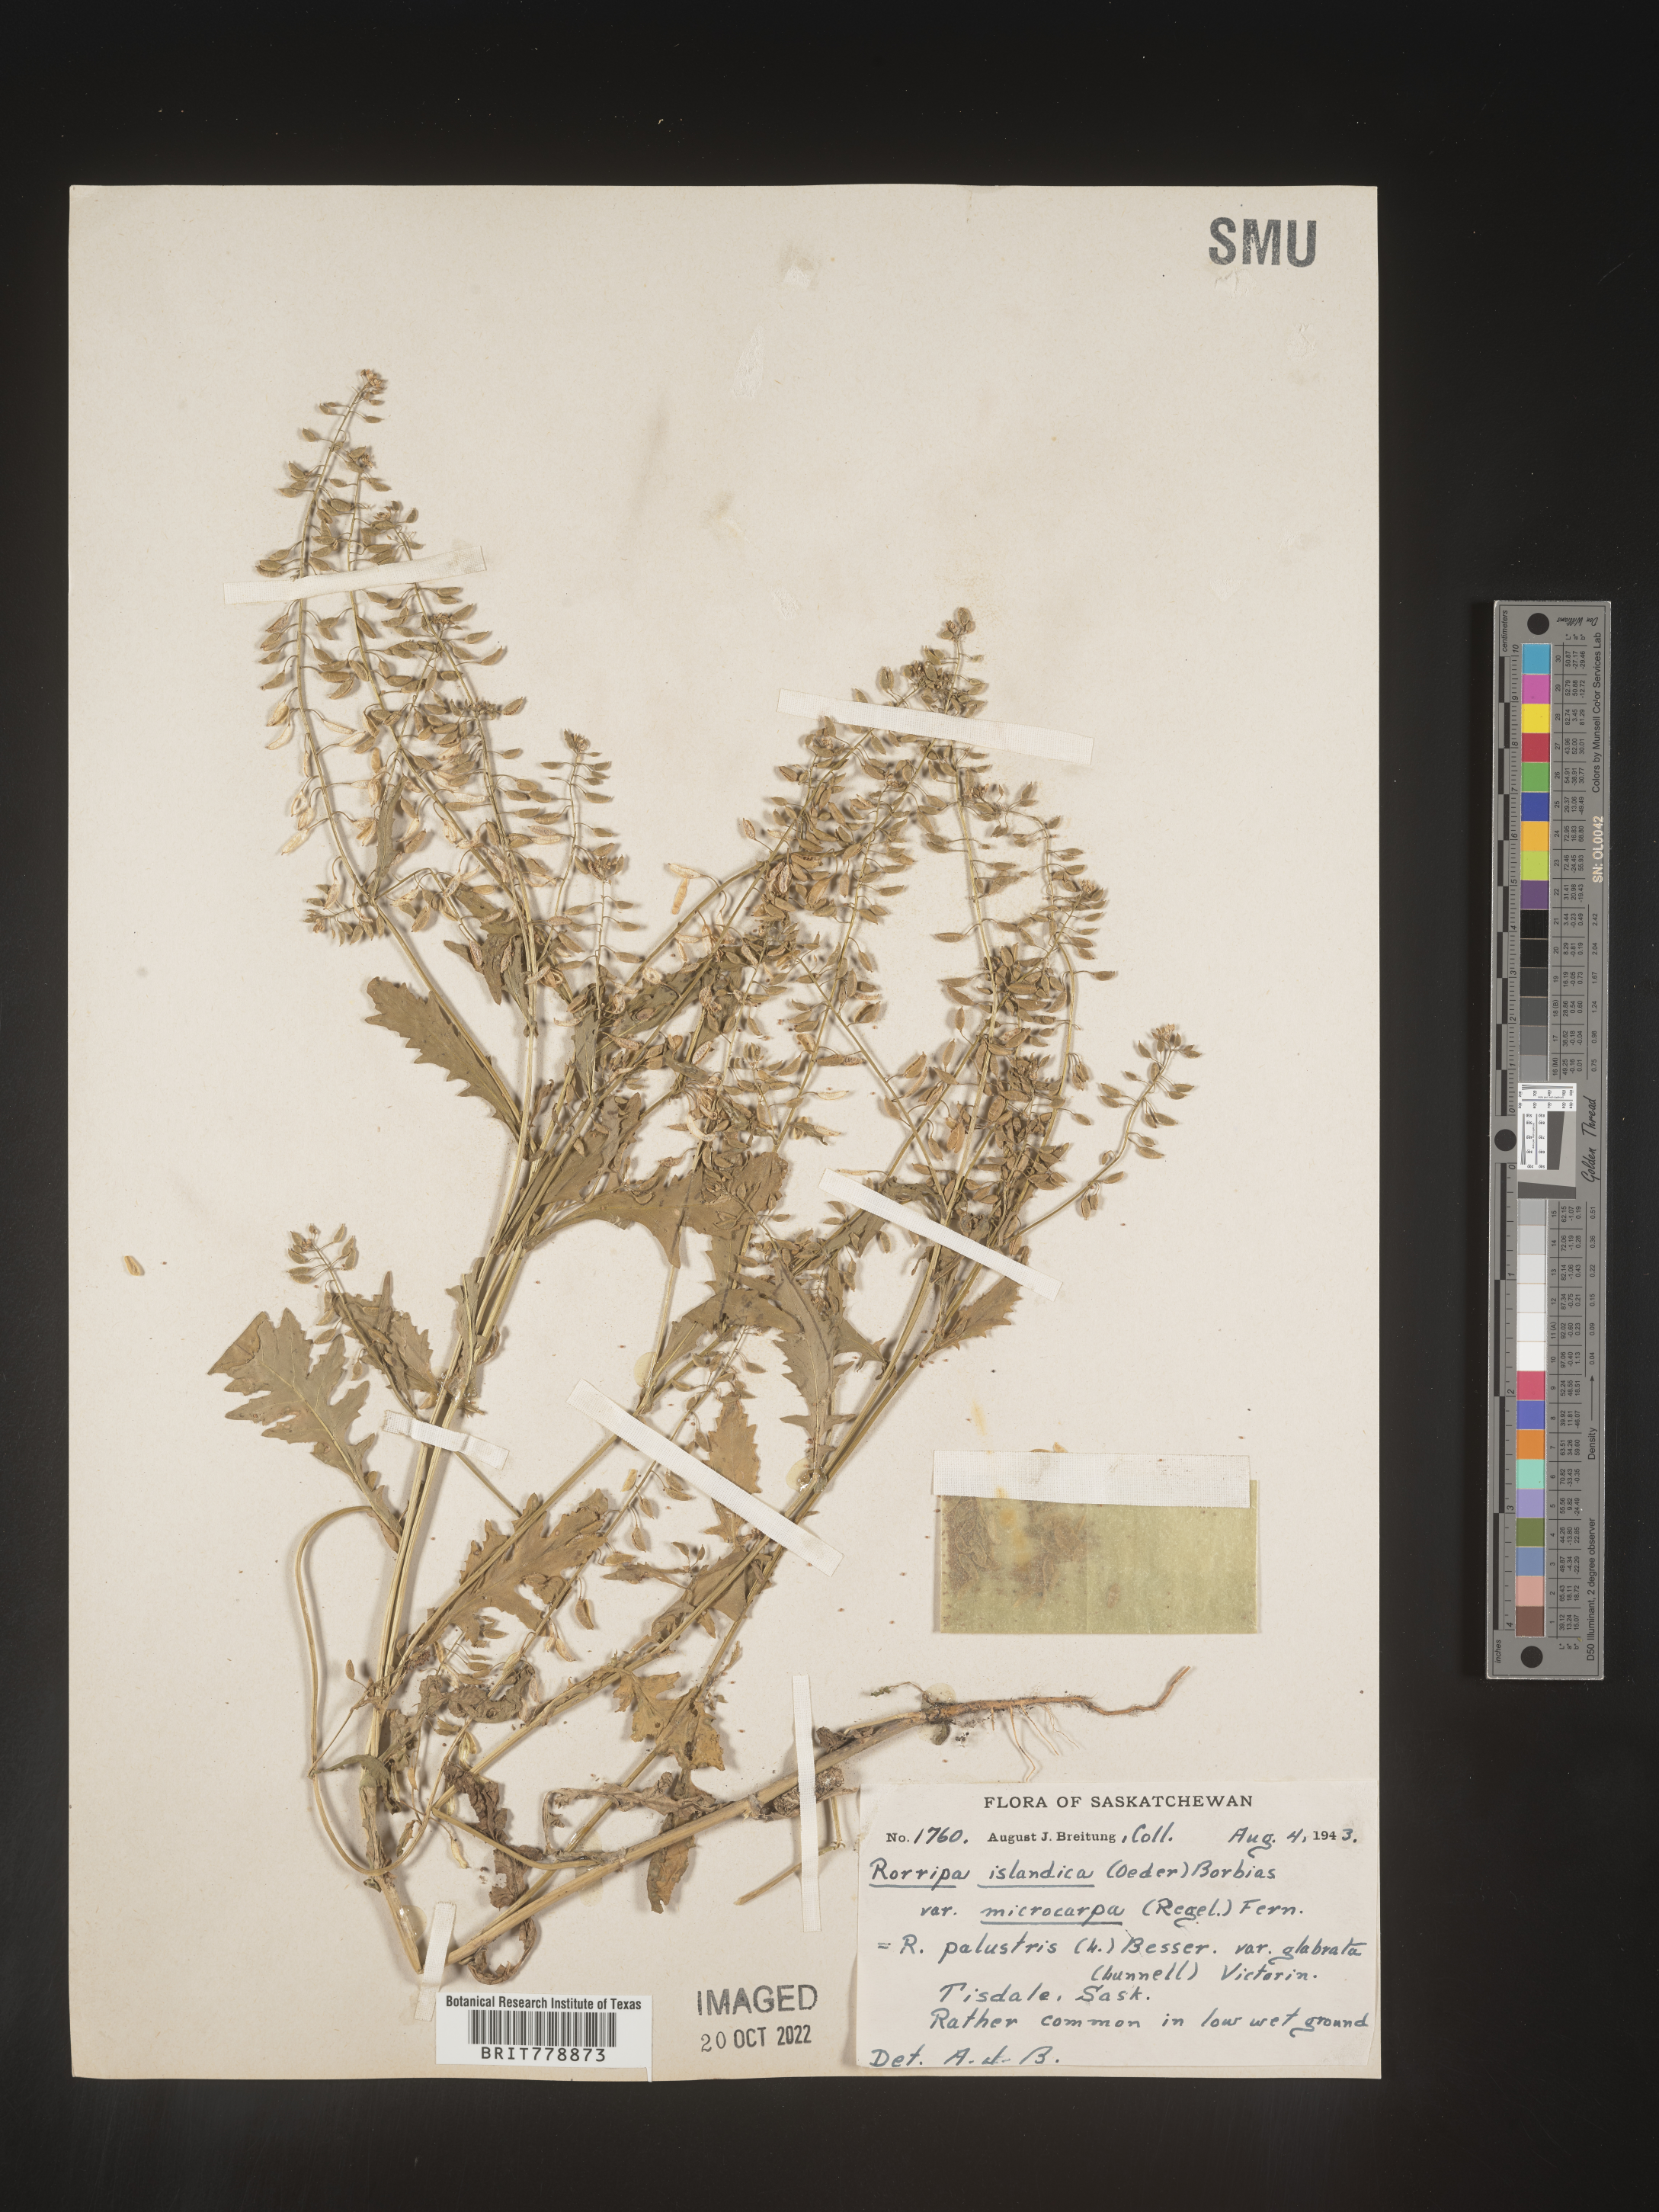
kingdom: Plantae
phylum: Tracheophyta
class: Magnoliopsida
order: Brassicales
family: Brassicaceae
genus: Rorippa
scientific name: Rorippa palustris
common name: Marsh yellow-cress
